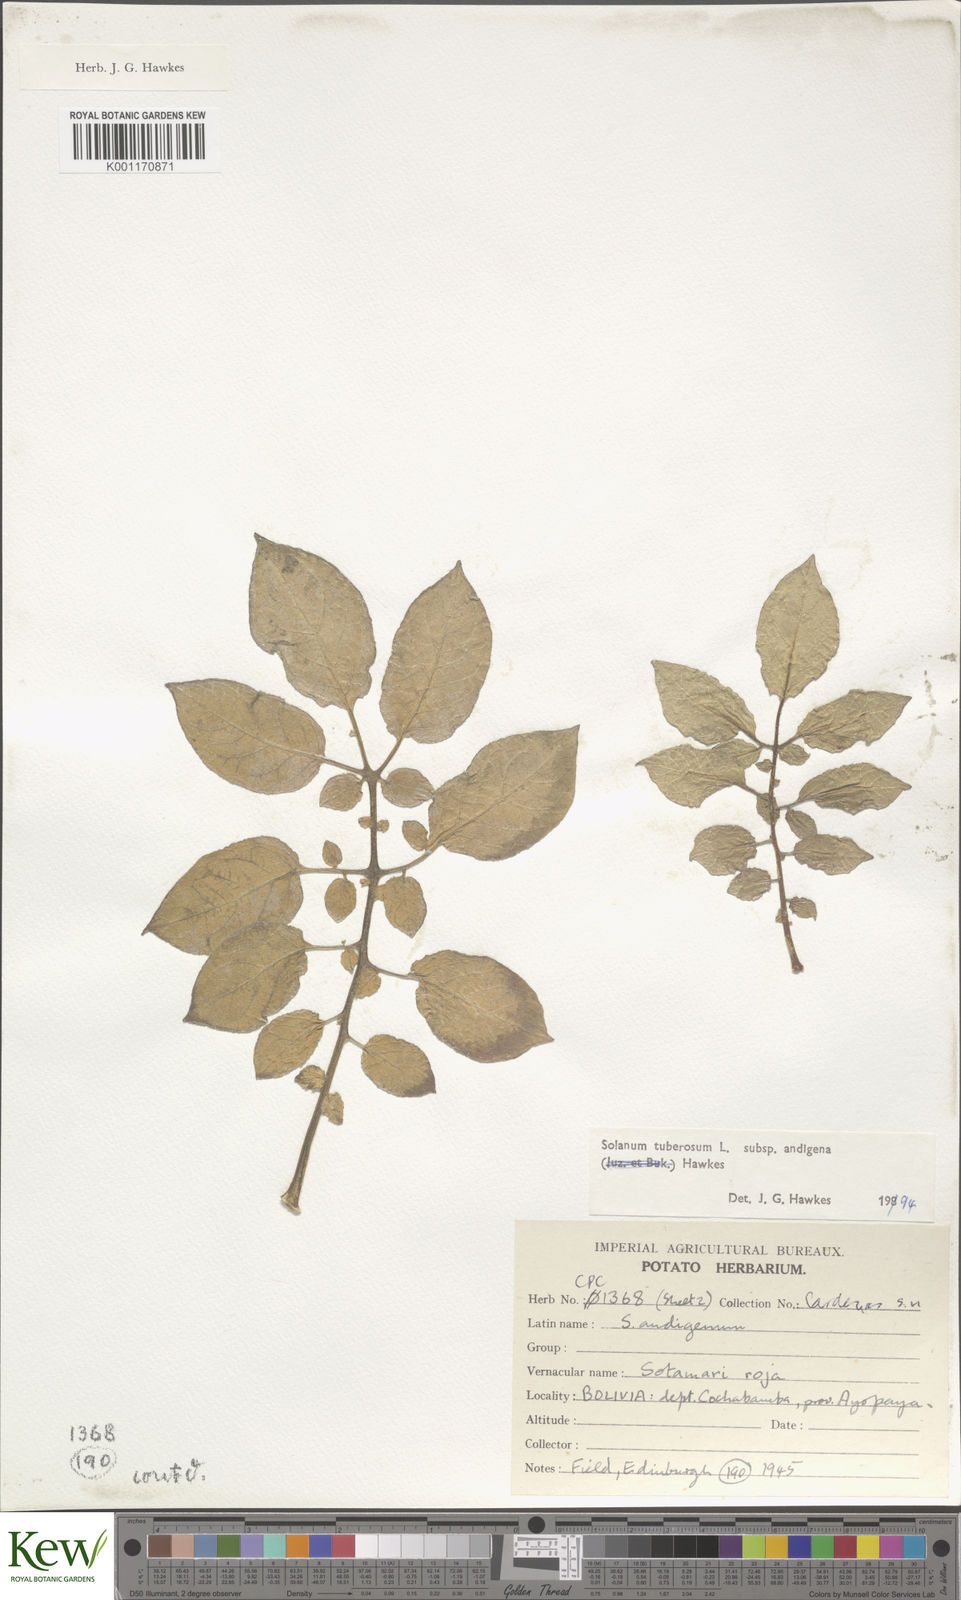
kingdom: Plantae
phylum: Tracheophyta
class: Magnoliopsida
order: Solanales
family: Solanaceae
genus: Solanum
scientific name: Solanum tuberosum
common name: Potato
